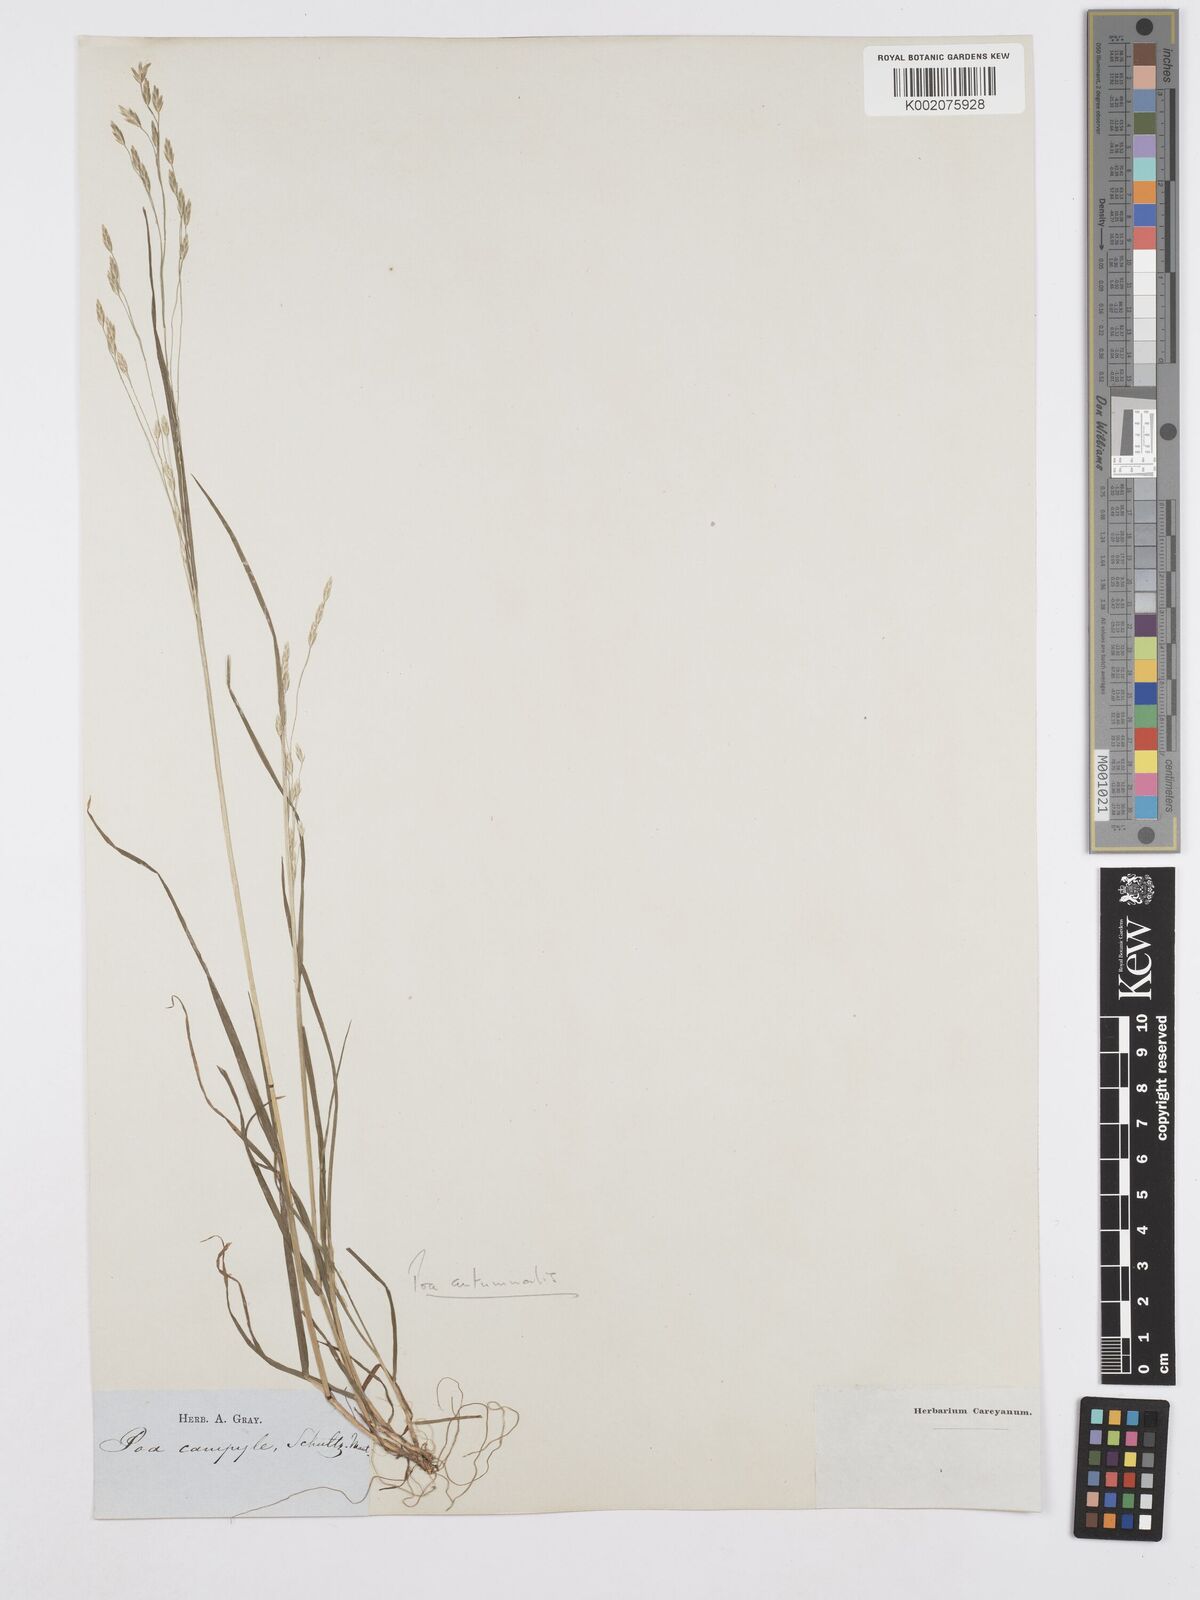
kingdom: Plantae
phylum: Tracheophyta
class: Liliopsida
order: Poales
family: Poaceae
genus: Poa
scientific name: Poa autumnalis
